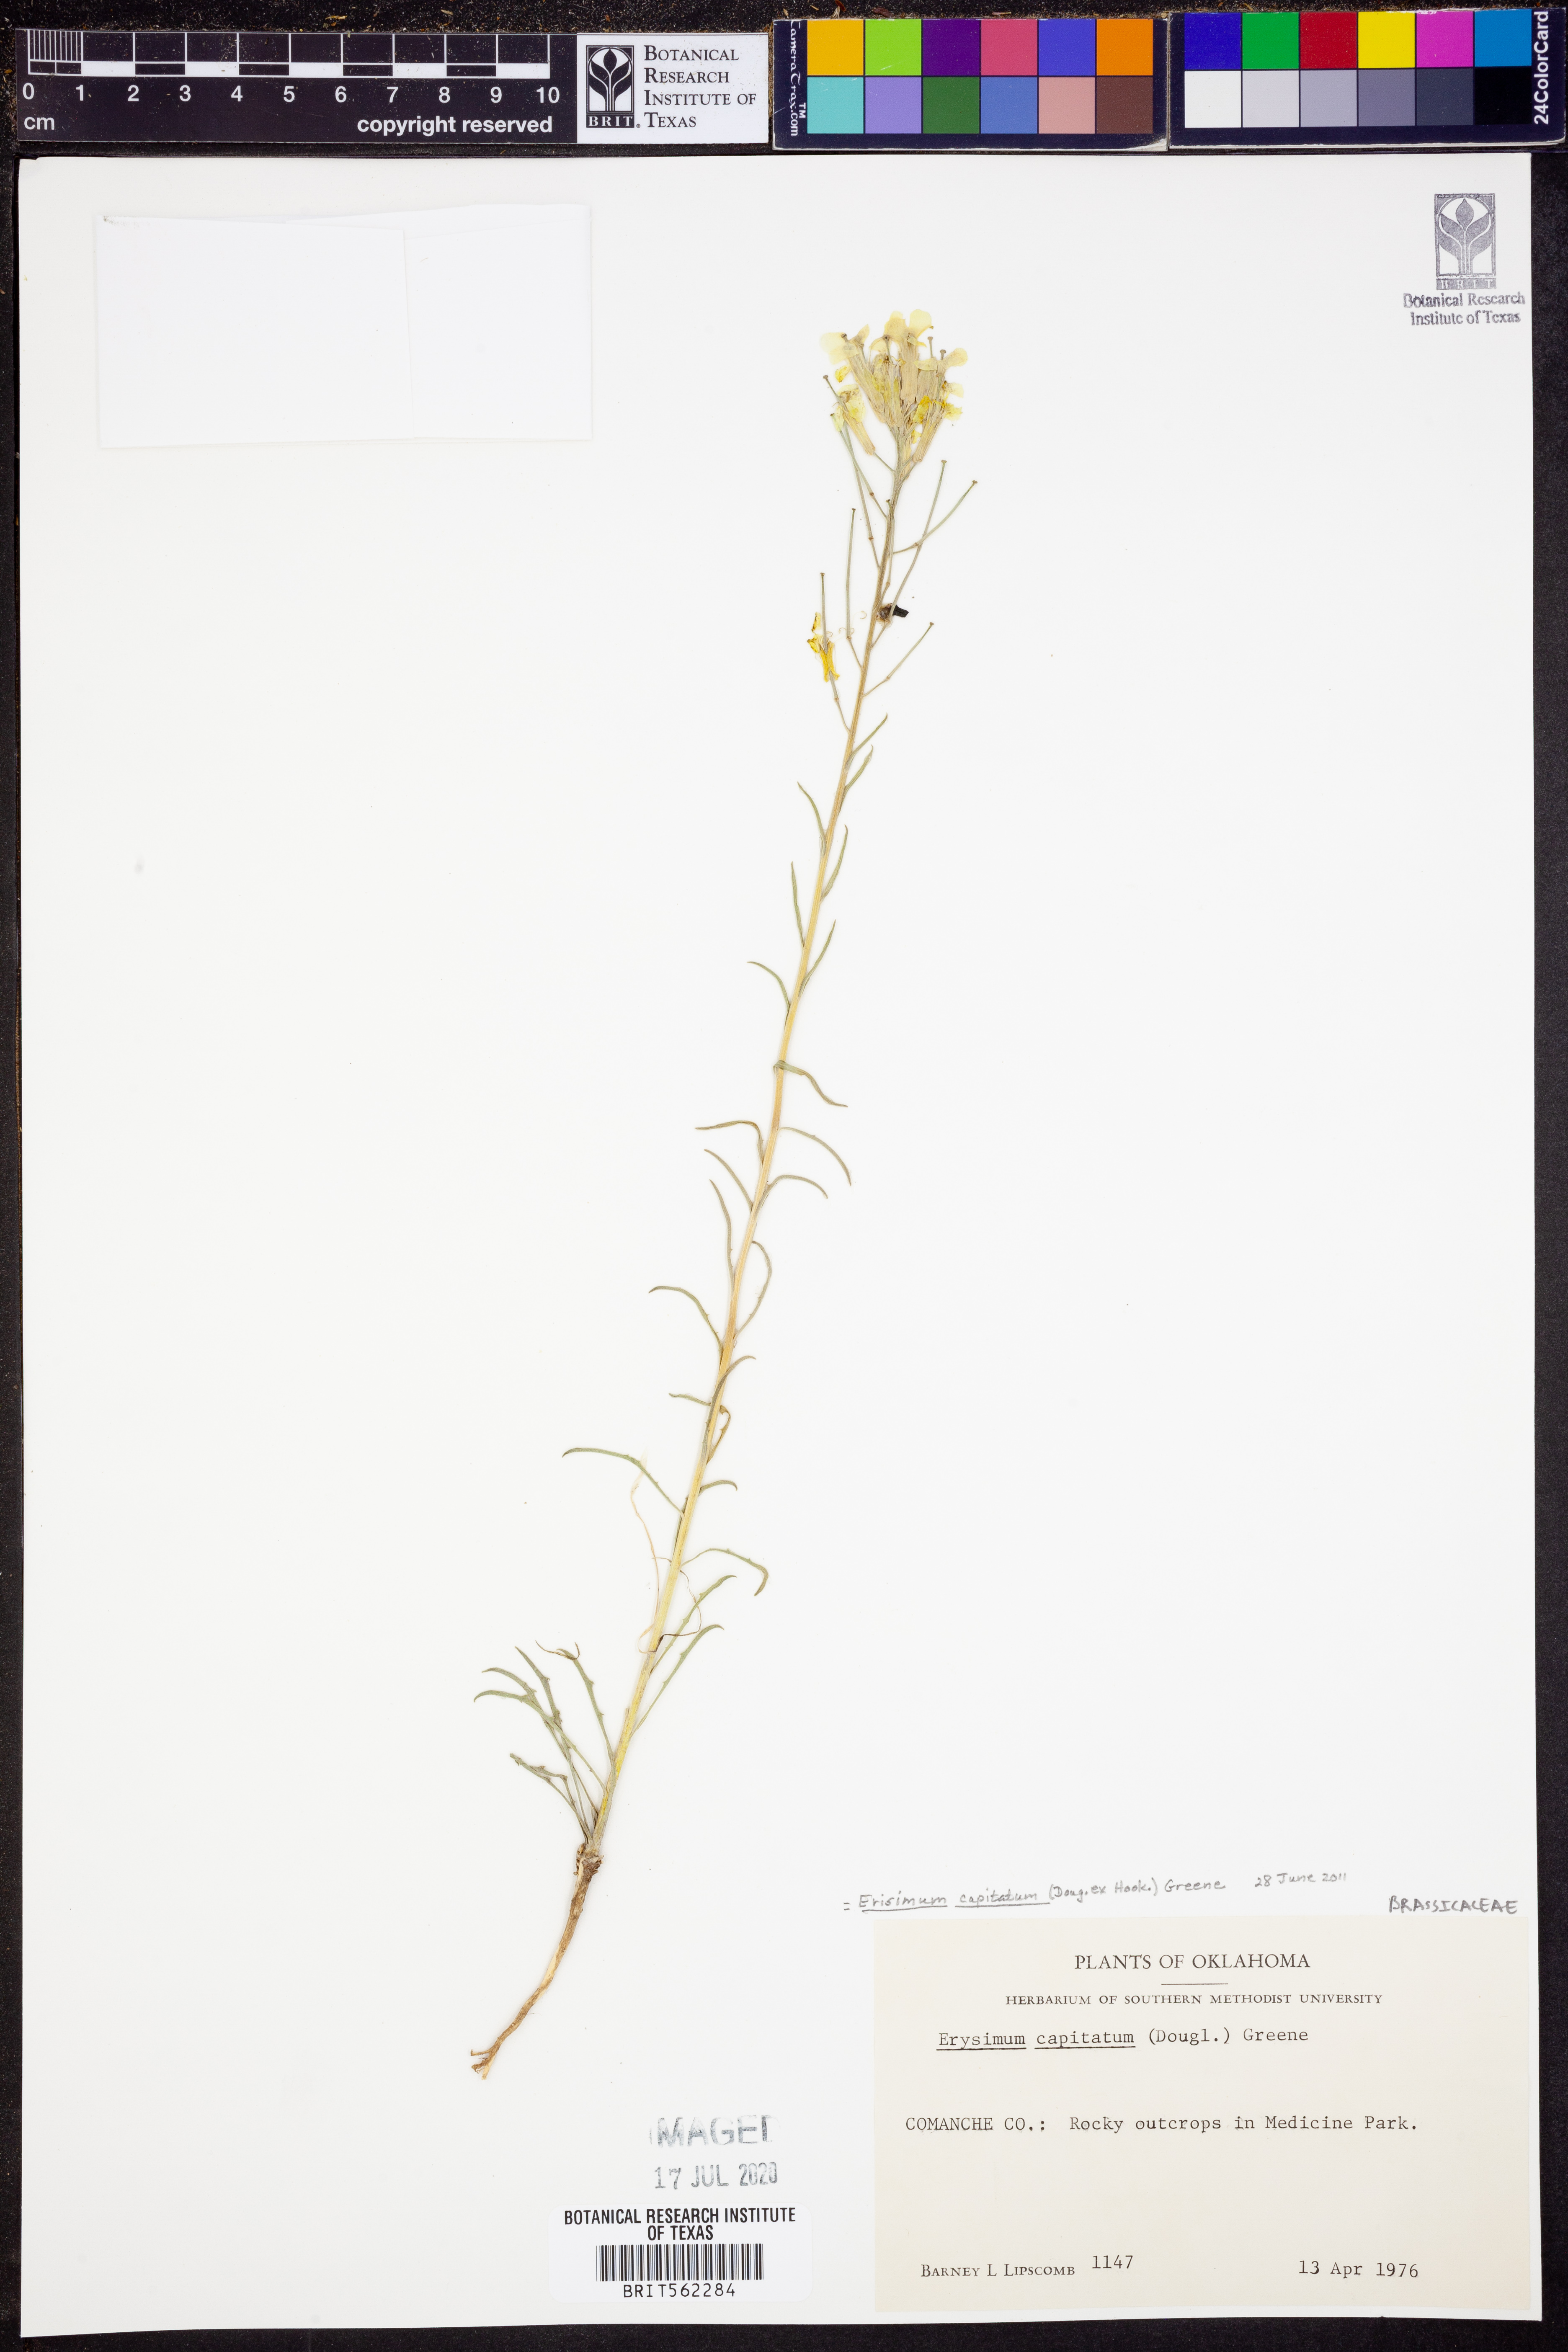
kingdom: Plantae
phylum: Tracheophyta
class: Magnoliopsida
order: Brassicales
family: Brassicaceae
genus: Erysimum
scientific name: Erysimum capitatum
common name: Western wallflower
